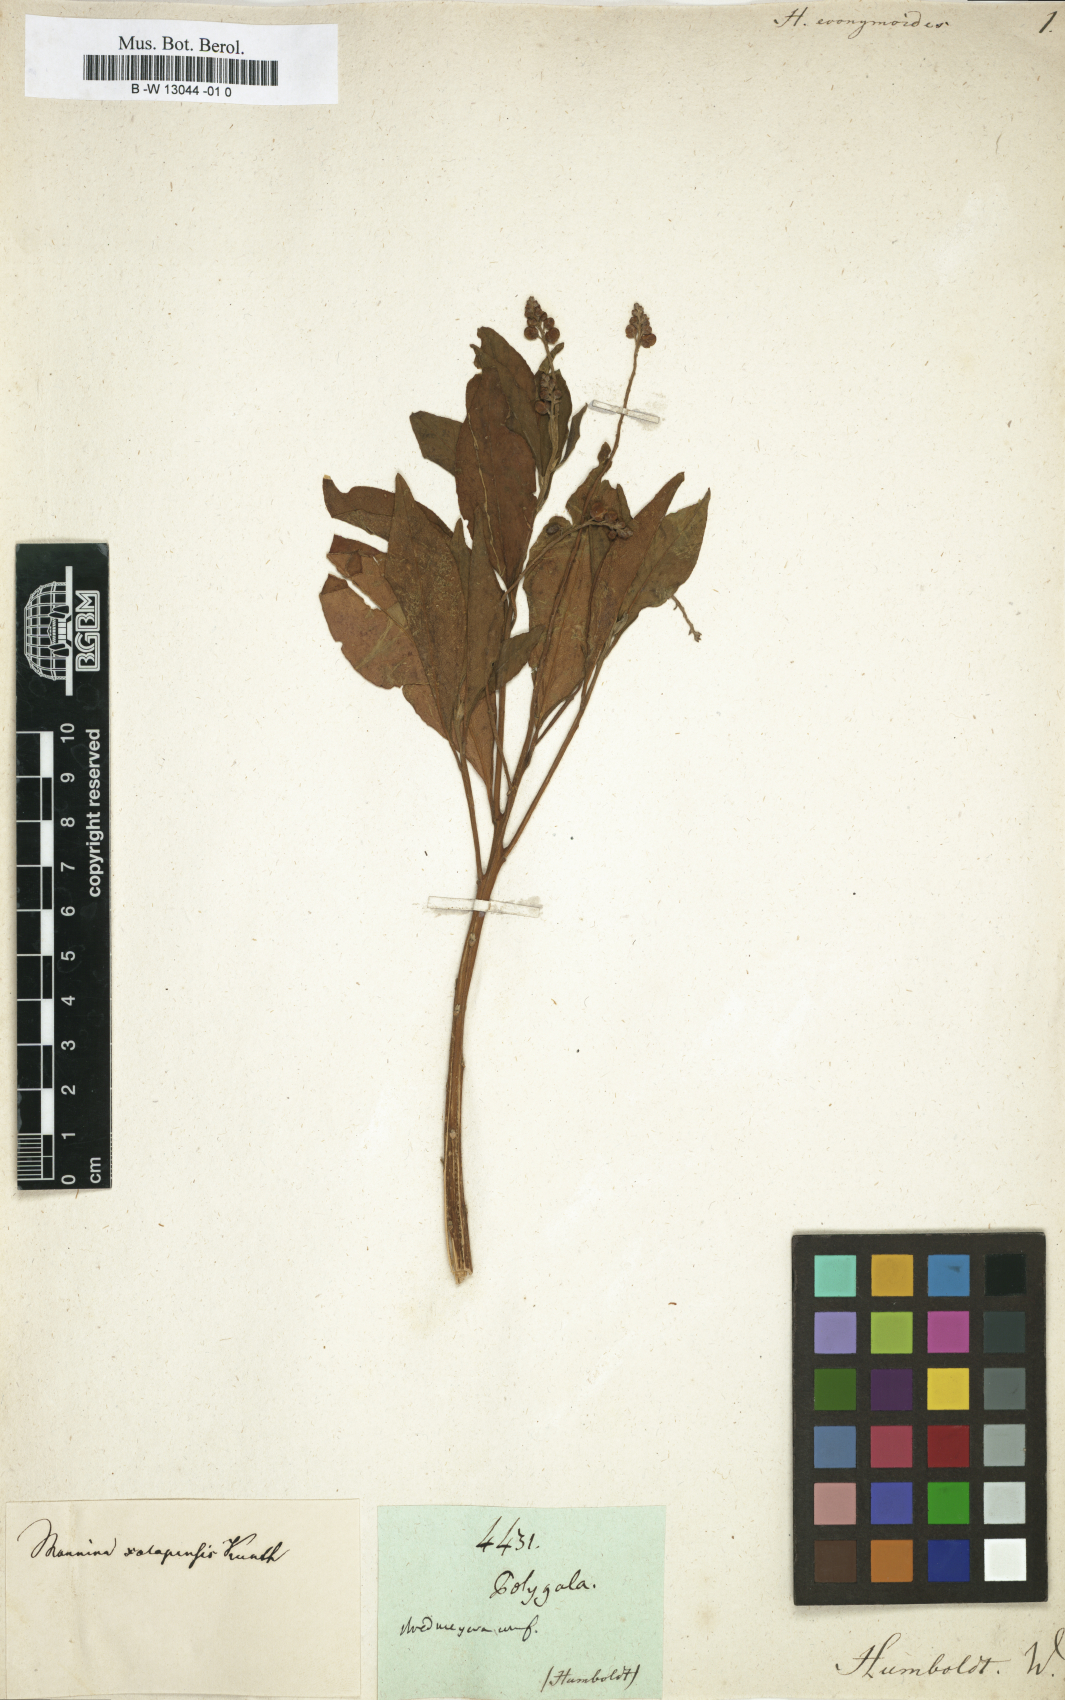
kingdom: Plantae
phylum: Tracheophyta
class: Magnoliopsida
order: Fabales
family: Polygalaceae
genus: Monnina
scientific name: Monnina xalapensis
